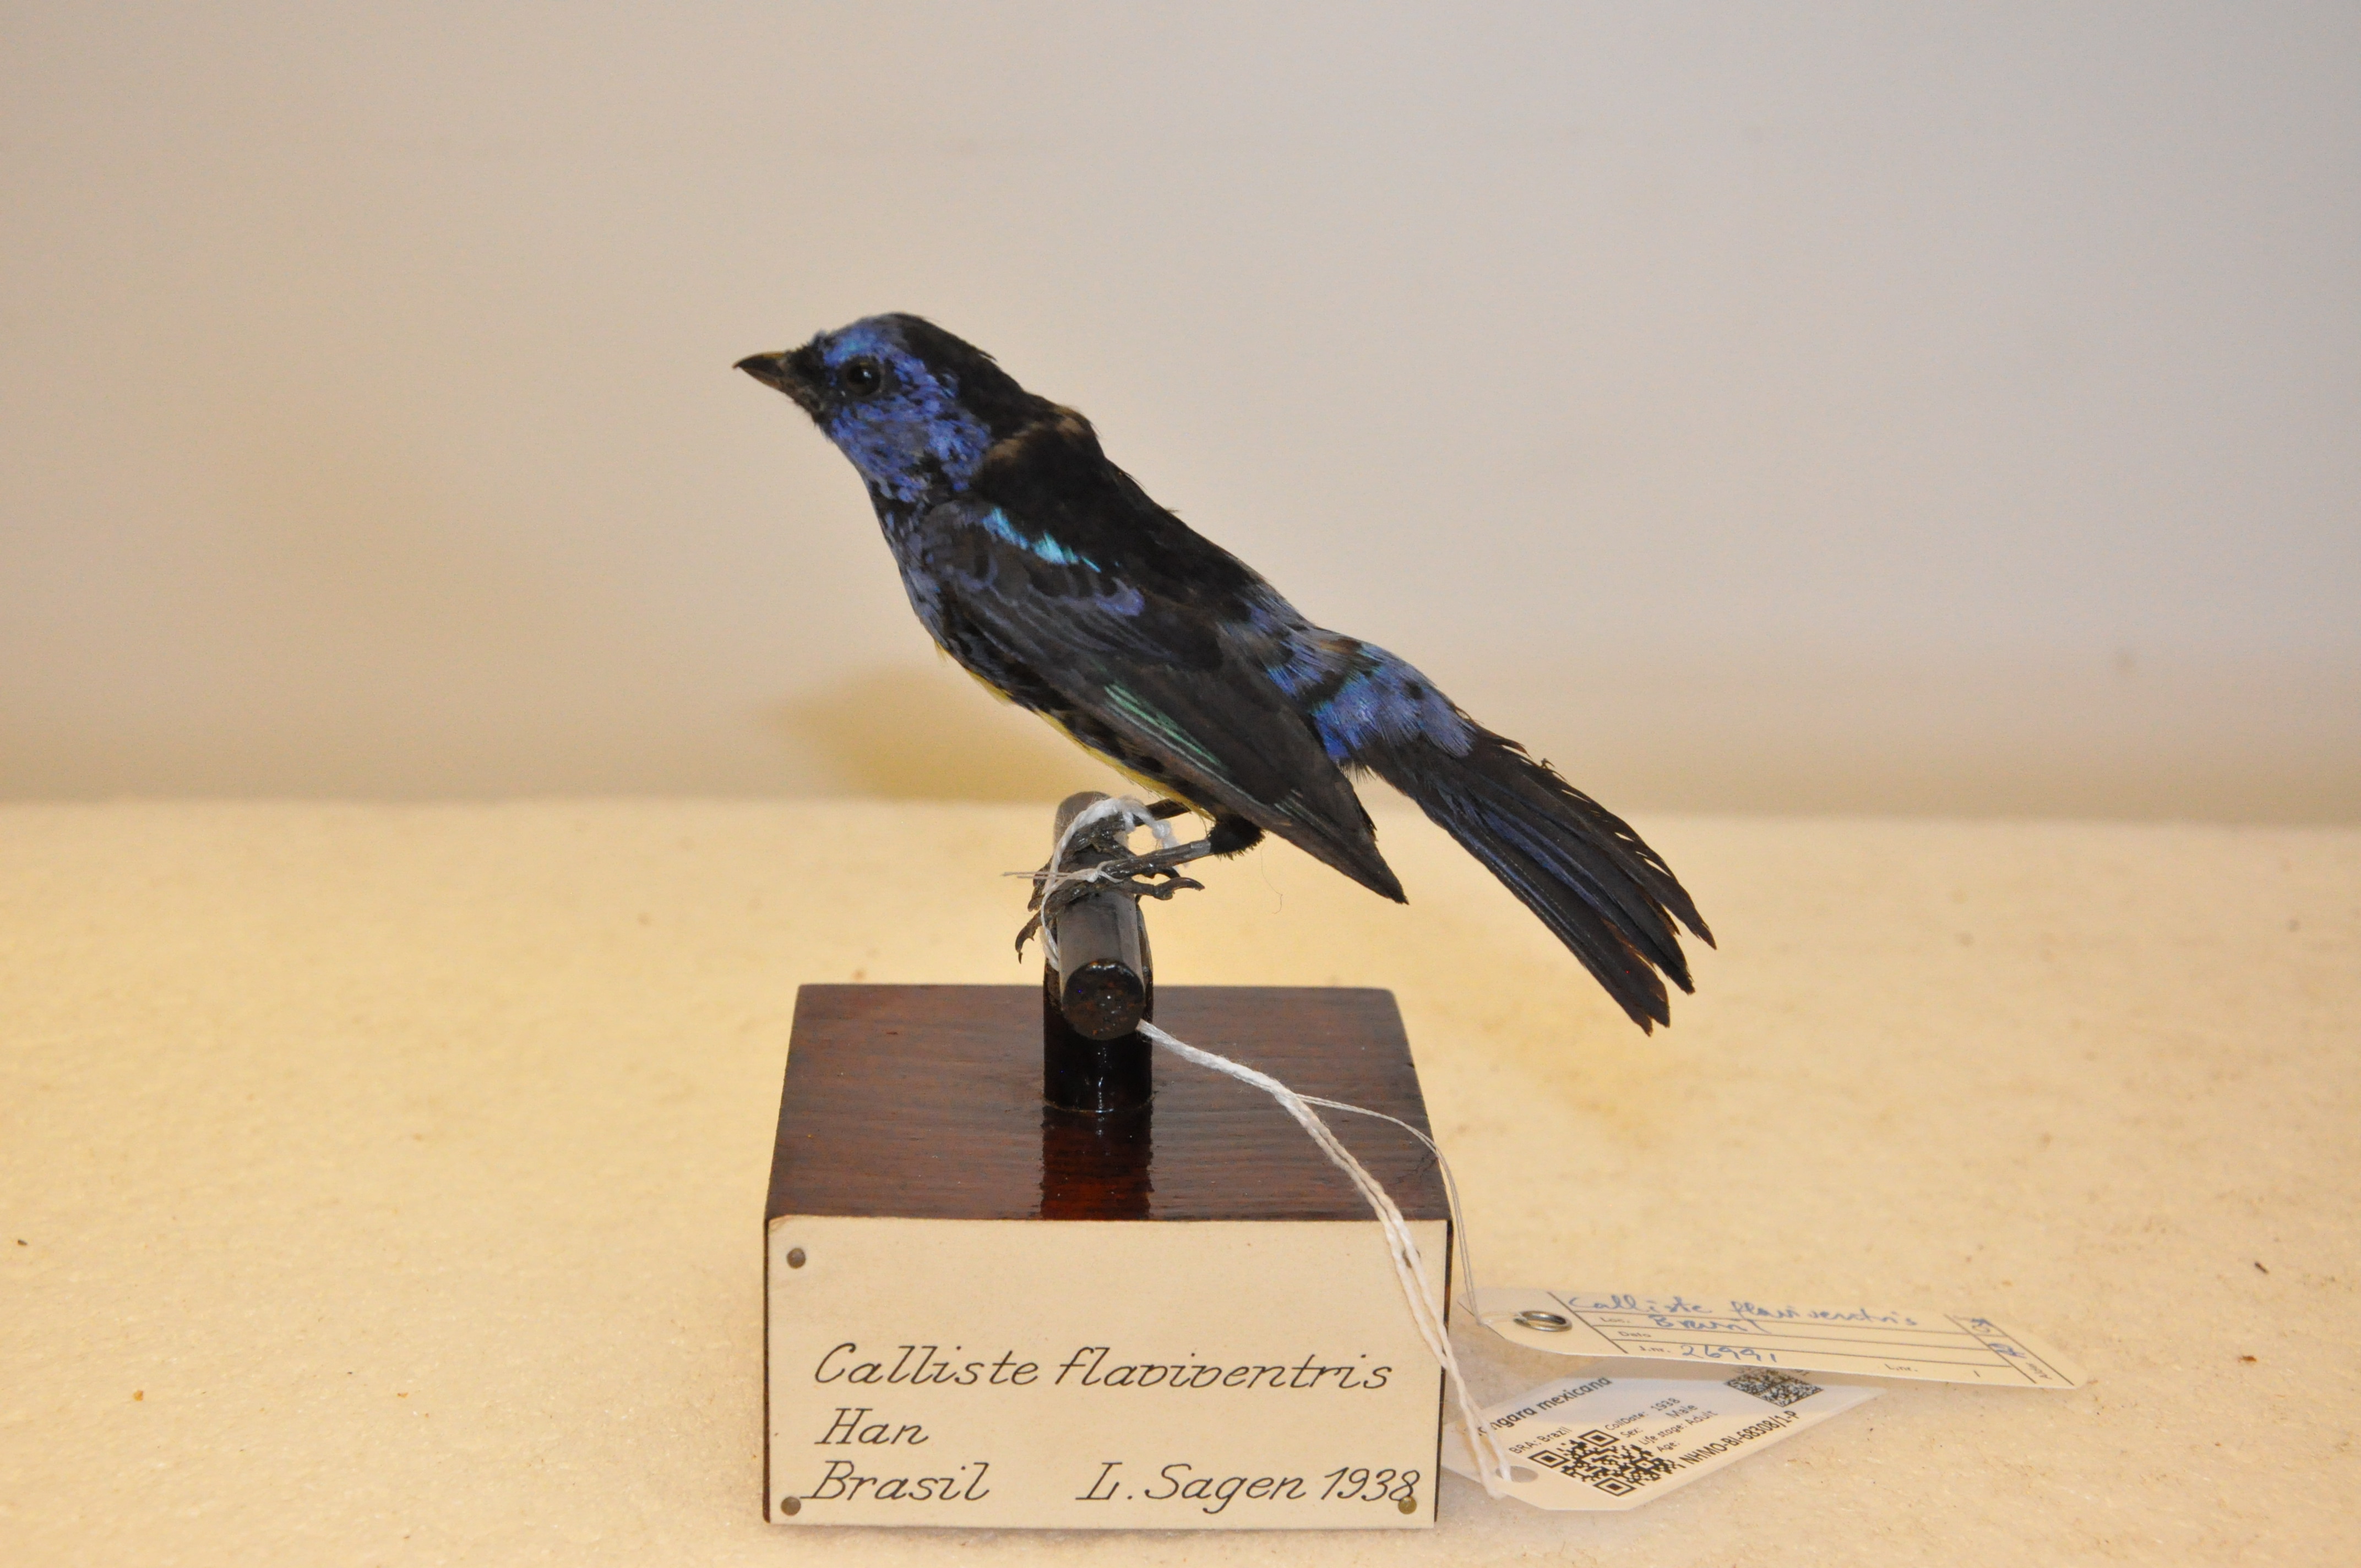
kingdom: Animalia
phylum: Chordata
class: Aves
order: Passeriformes
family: Thraupidae
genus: Tangara
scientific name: Tangara mexicana
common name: Turquoise tanager
